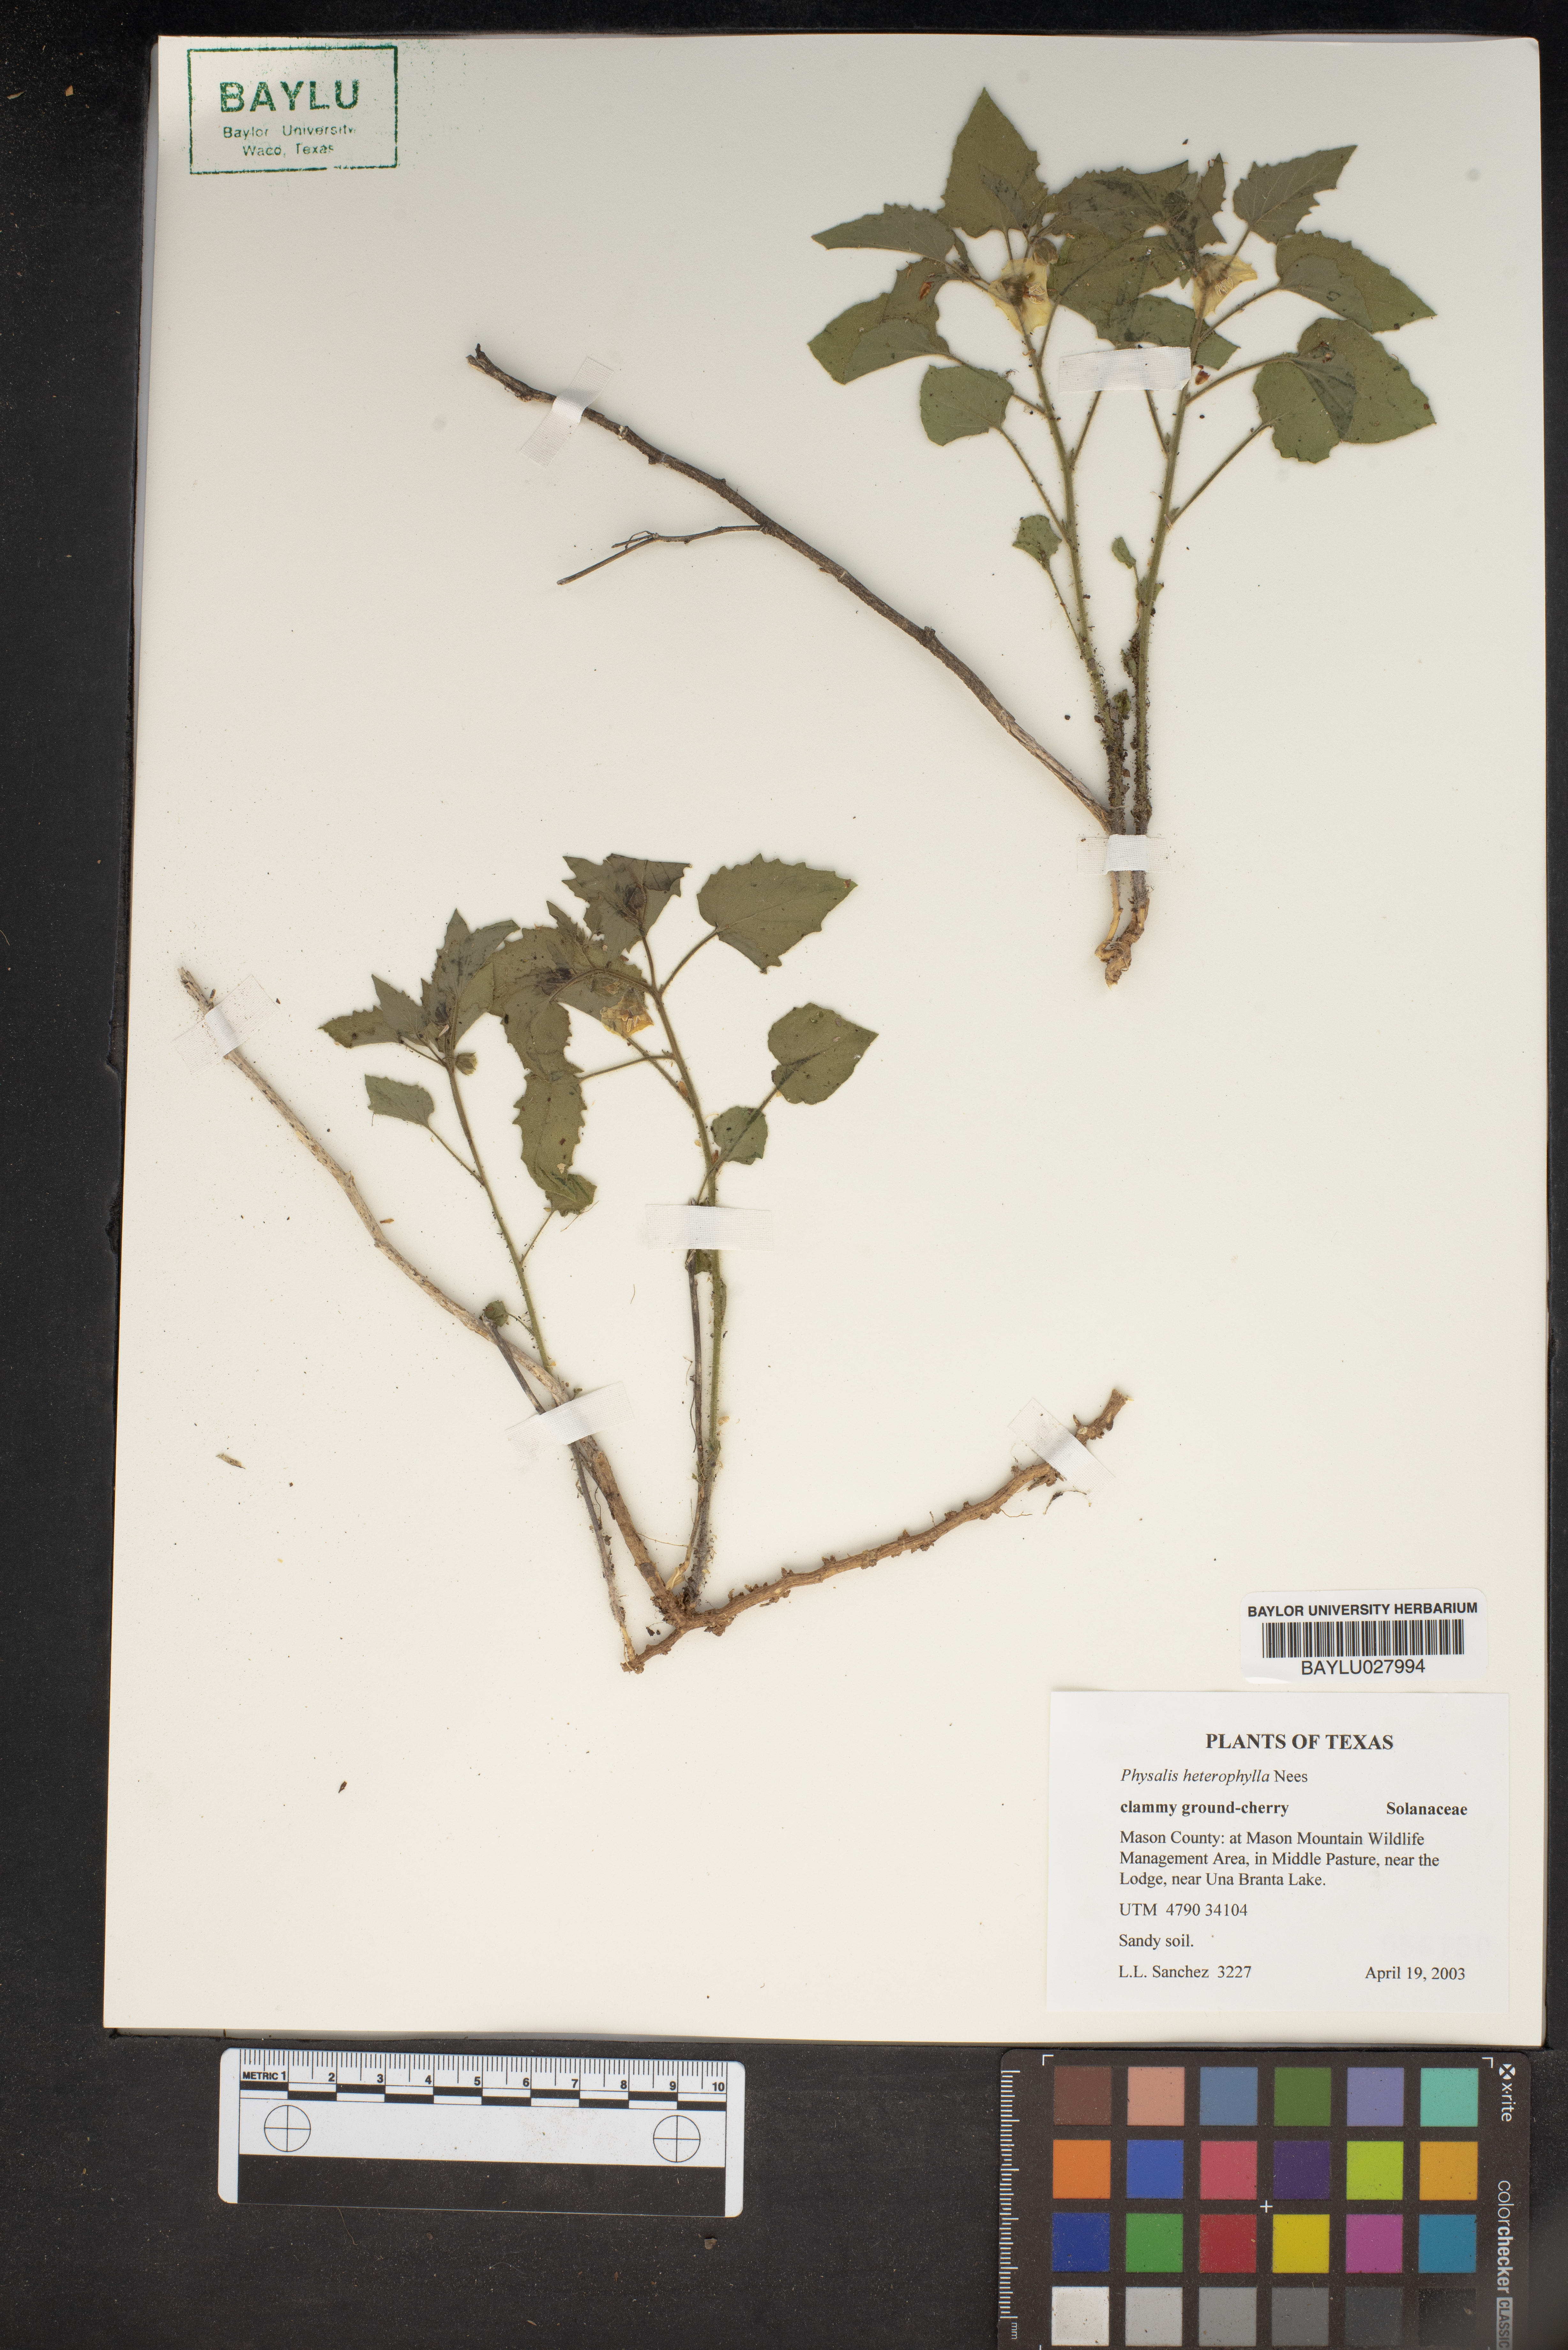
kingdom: Plantae
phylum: Tracheophyta
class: Magnoliopsida
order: Solanales
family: Solanaceae
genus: Physalis
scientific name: Physalis heterophylla
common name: Clammy ground-cherry
